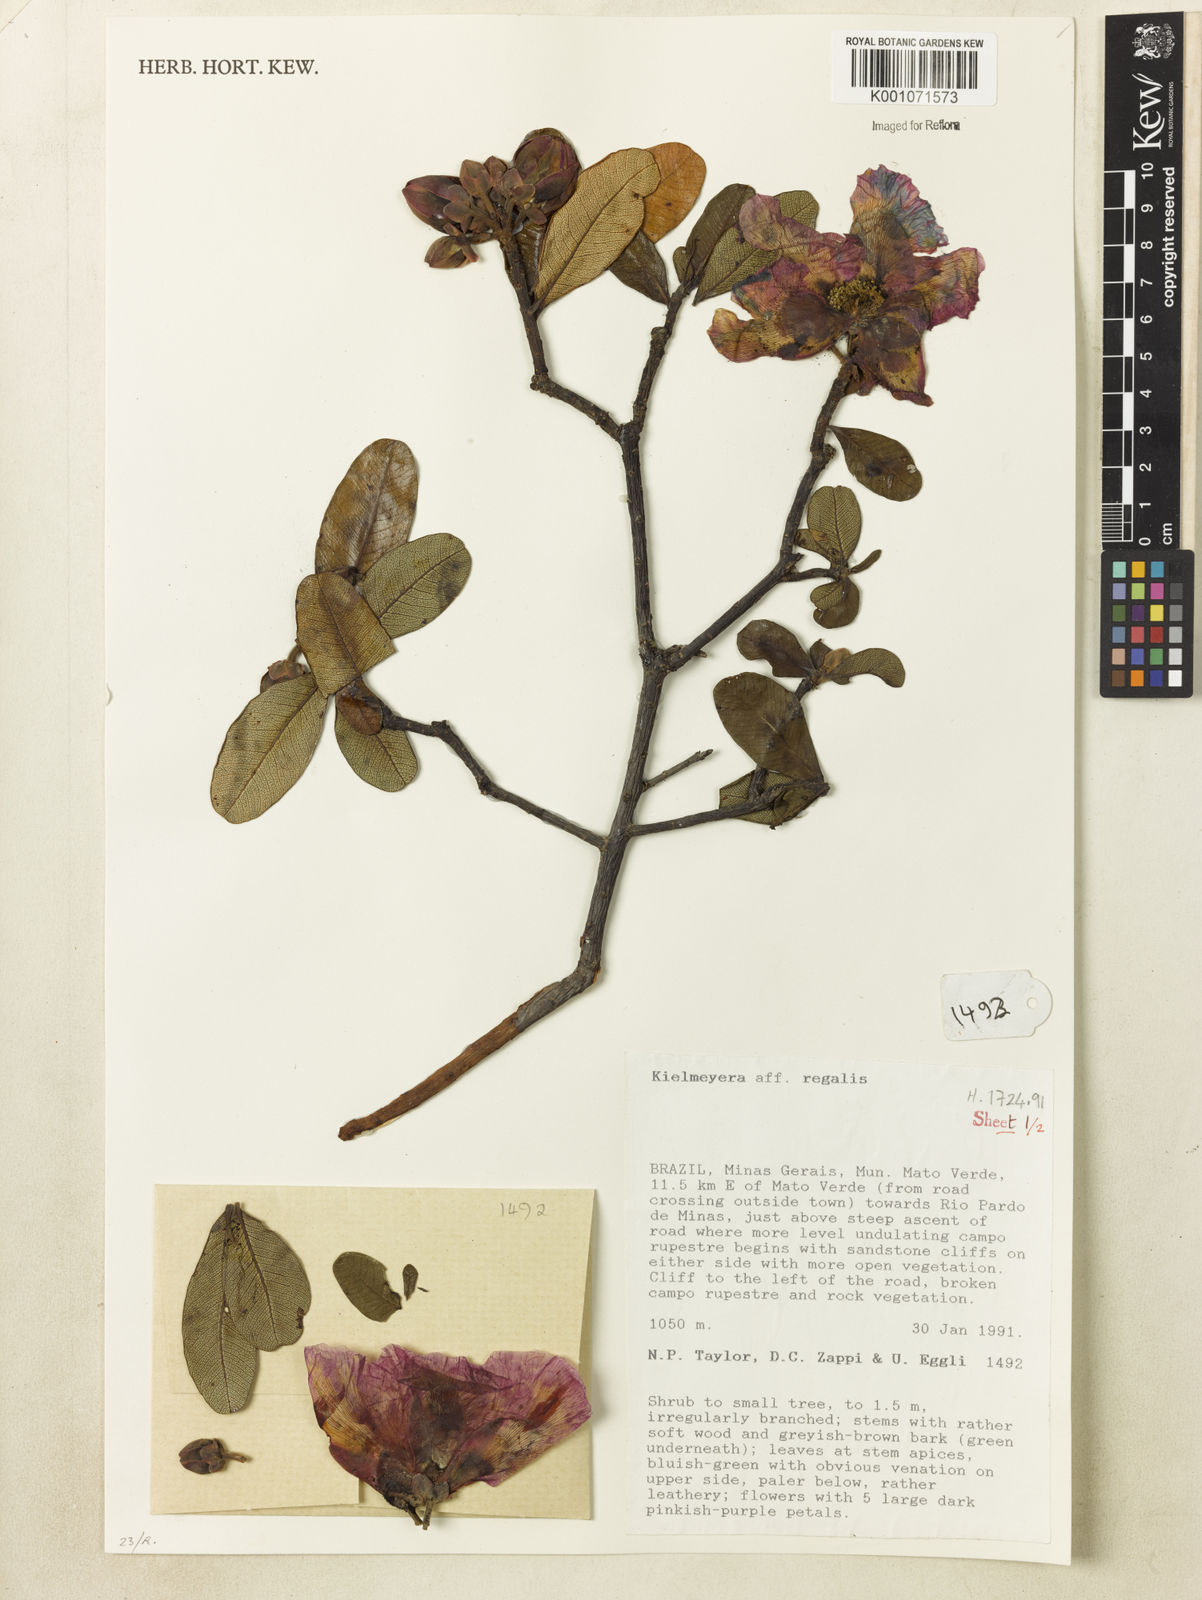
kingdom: Plantae
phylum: Tracheophyta
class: Magnoliopsida
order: Malpighiales
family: Calophyllaceae
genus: Kielmeyera
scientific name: Kielmeyera regalis
